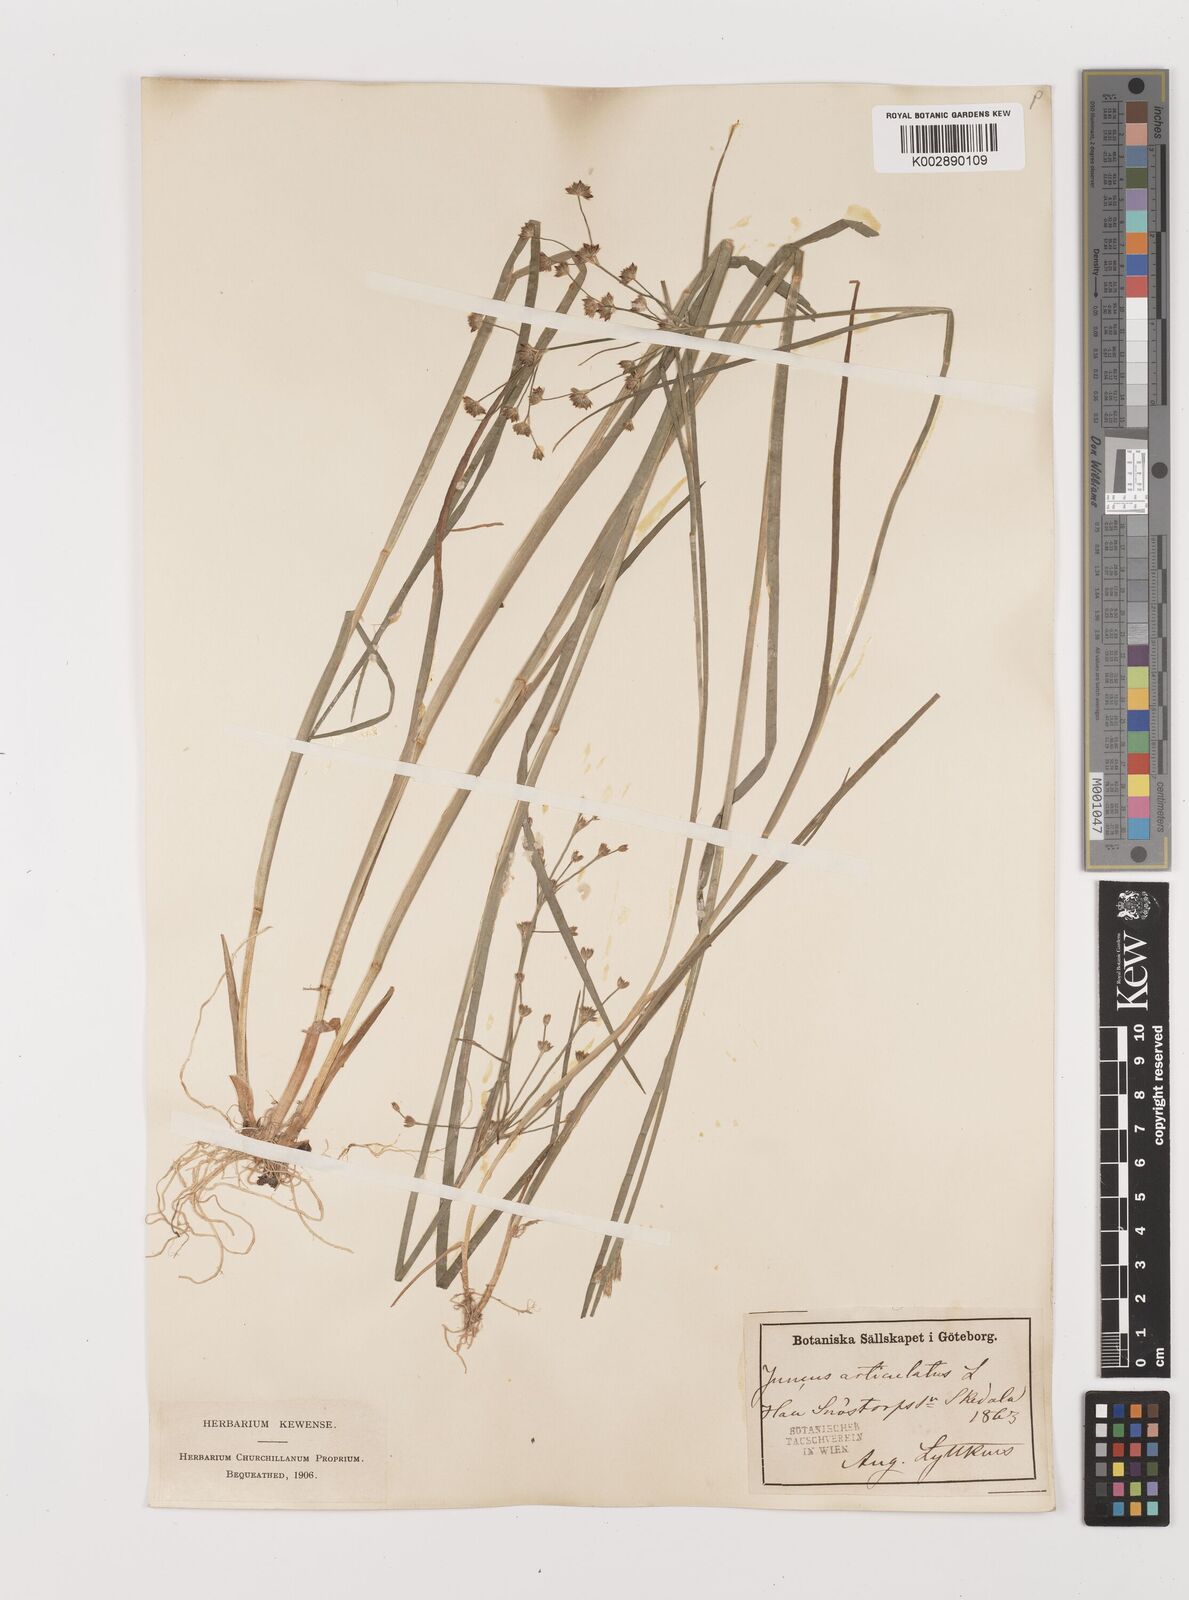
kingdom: Plantae
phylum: Tracheophyta
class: Liliopsida
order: Poales
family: Juncaceae
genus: Juncus
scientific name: Juncus articulatus
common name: Jointed rush
